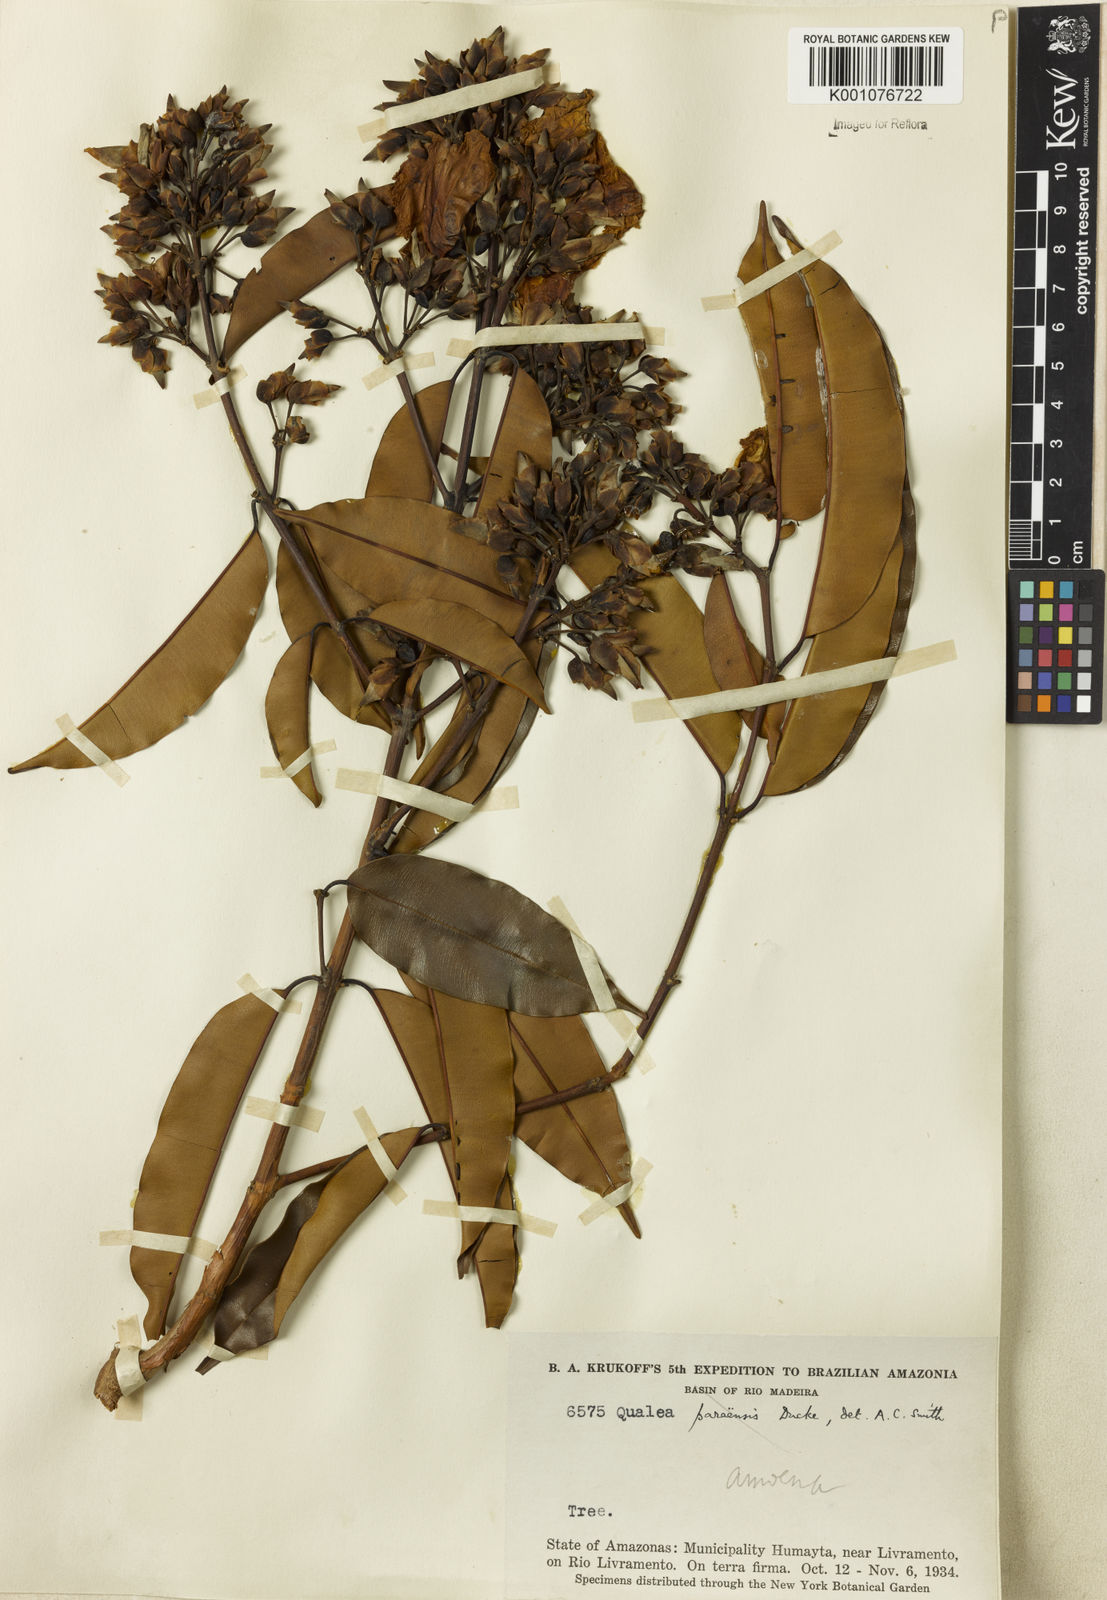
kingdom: Plantae
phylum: Tracheophyta
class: Magnoliopsida
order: Myrtales
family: Vochysiaceae
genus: Qualea
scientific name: Qualea amoena
